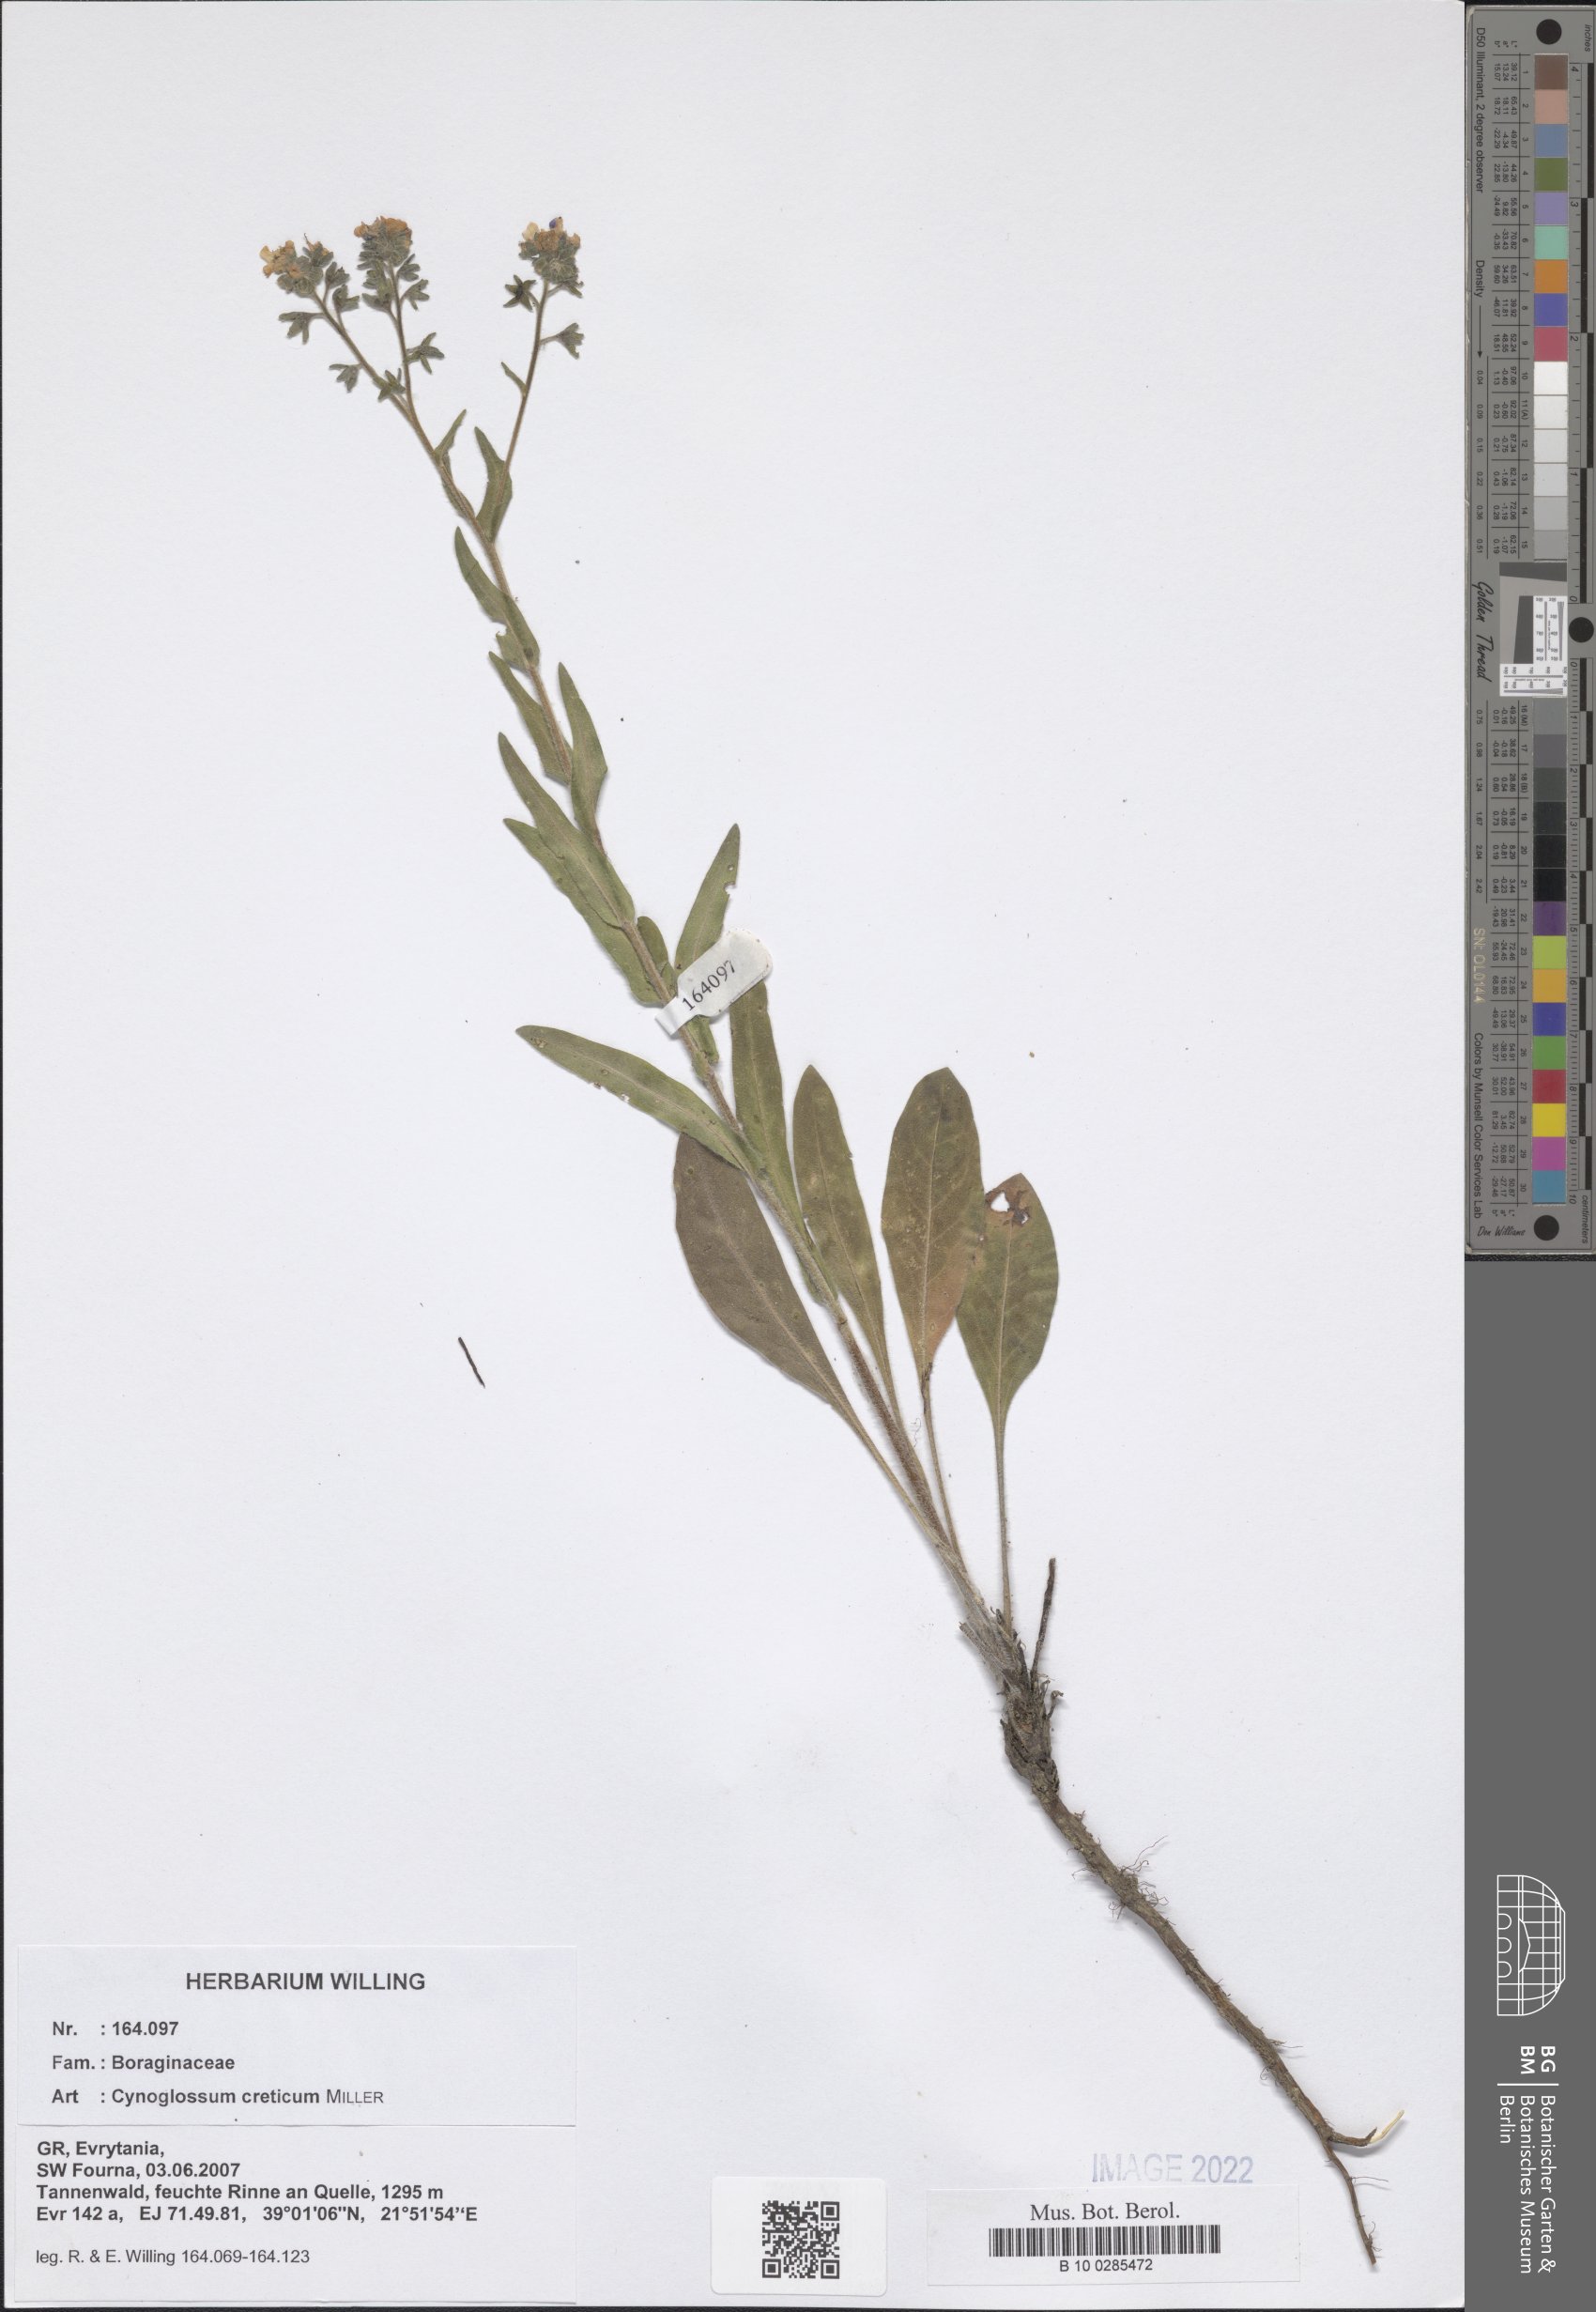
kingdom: Plantae
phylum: Tracheophyta
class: Magnoliopsida
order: Boraginales
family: Boraginaceae
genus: Cynoglossum
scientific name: Cynoglossum creticum
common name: Blue hound's tongue
